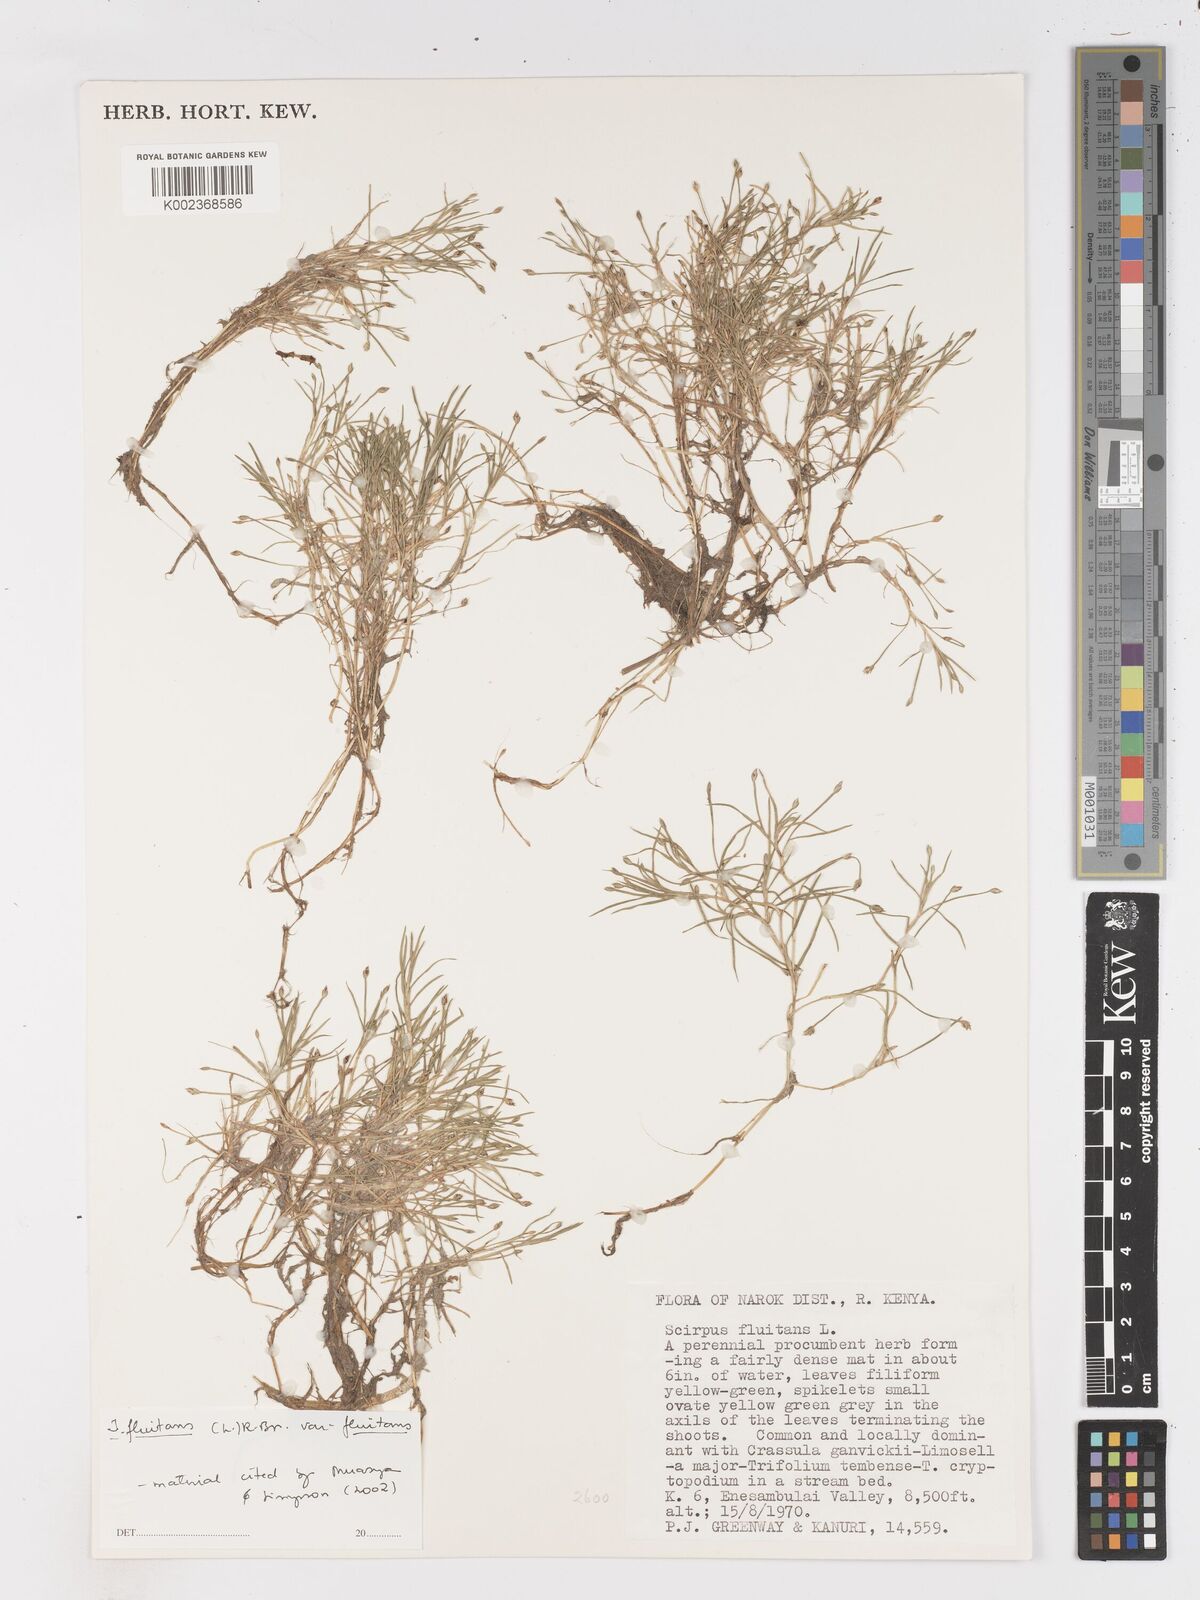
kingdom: Plantae
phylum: Tracheophyta
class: Liliopsida
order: Poales
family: Cyperaceae
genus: Isolepis
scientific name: Isolepis fluitans
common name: Floating club-rush
